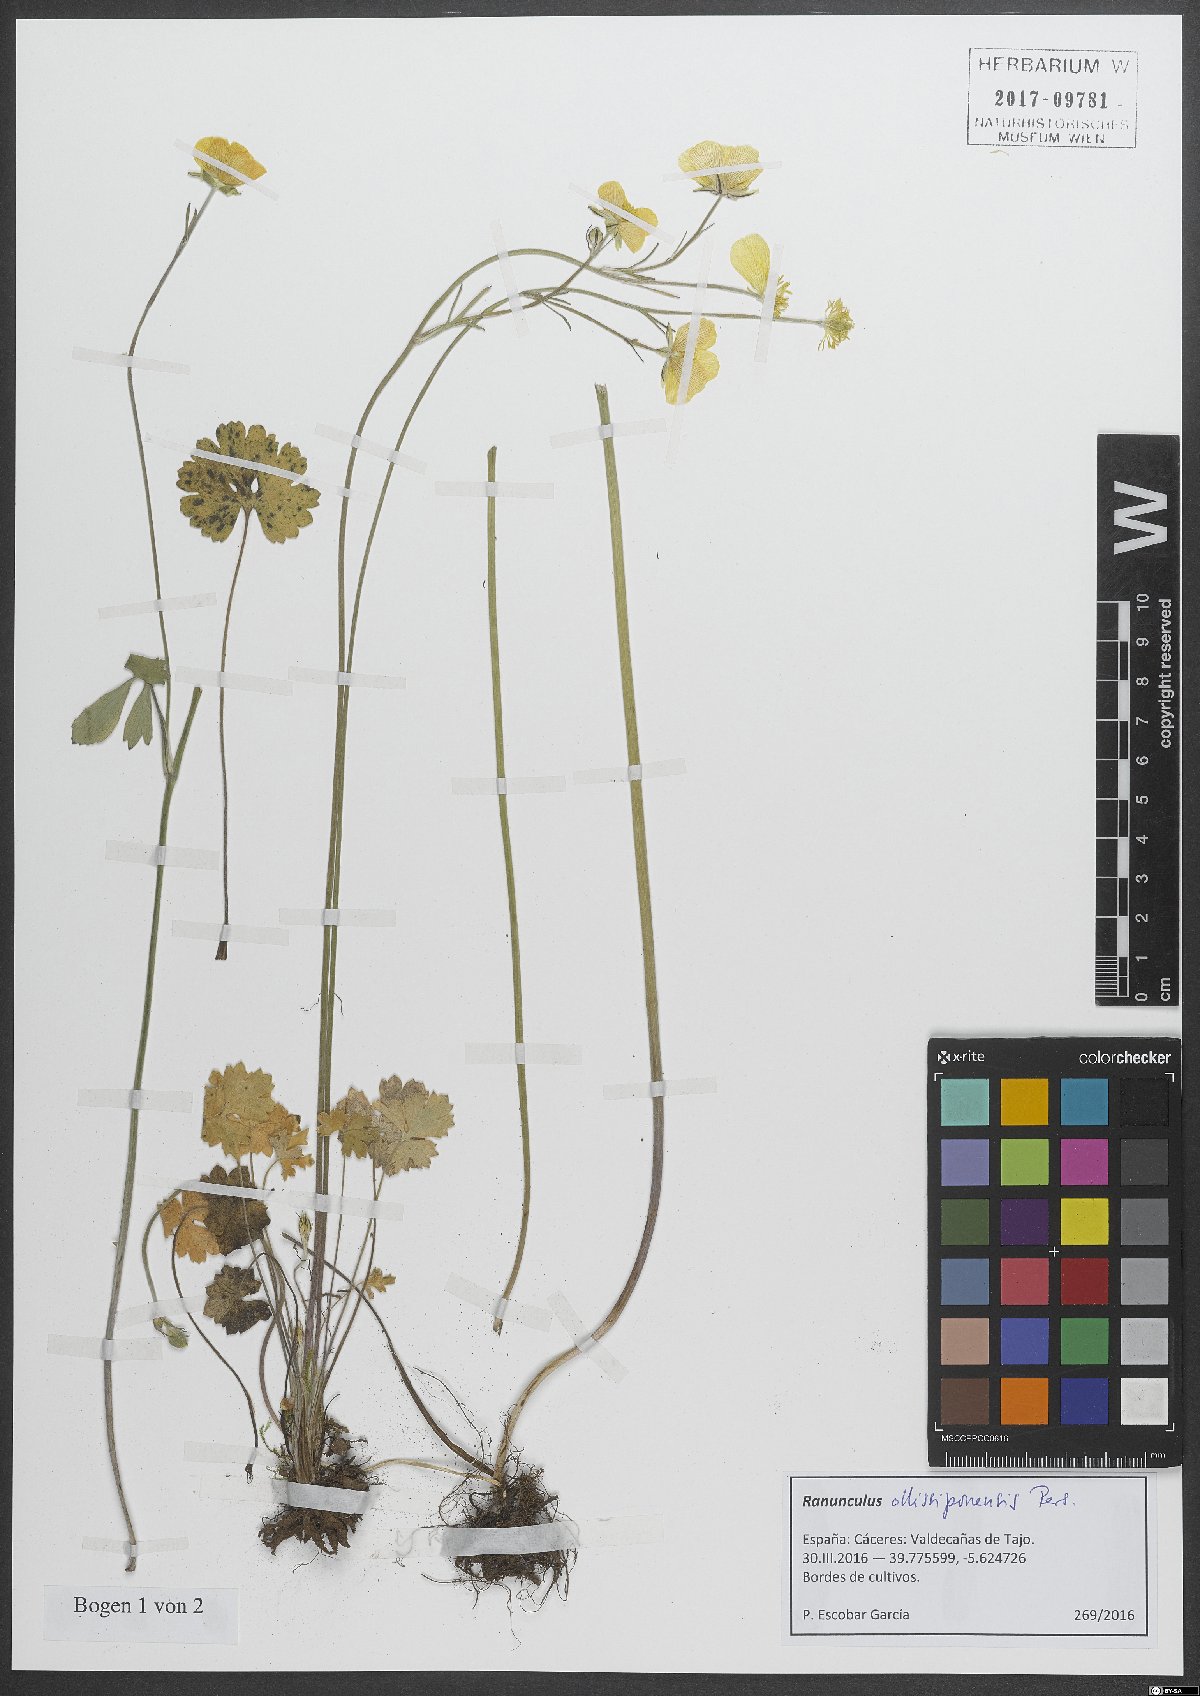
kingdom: Plantae
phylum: Tracheophyta
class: Magnoliopsida
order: Ranunculales
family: Ranunculaceae
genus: Ranunculus
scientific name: Ranunculus ollissiponensis
